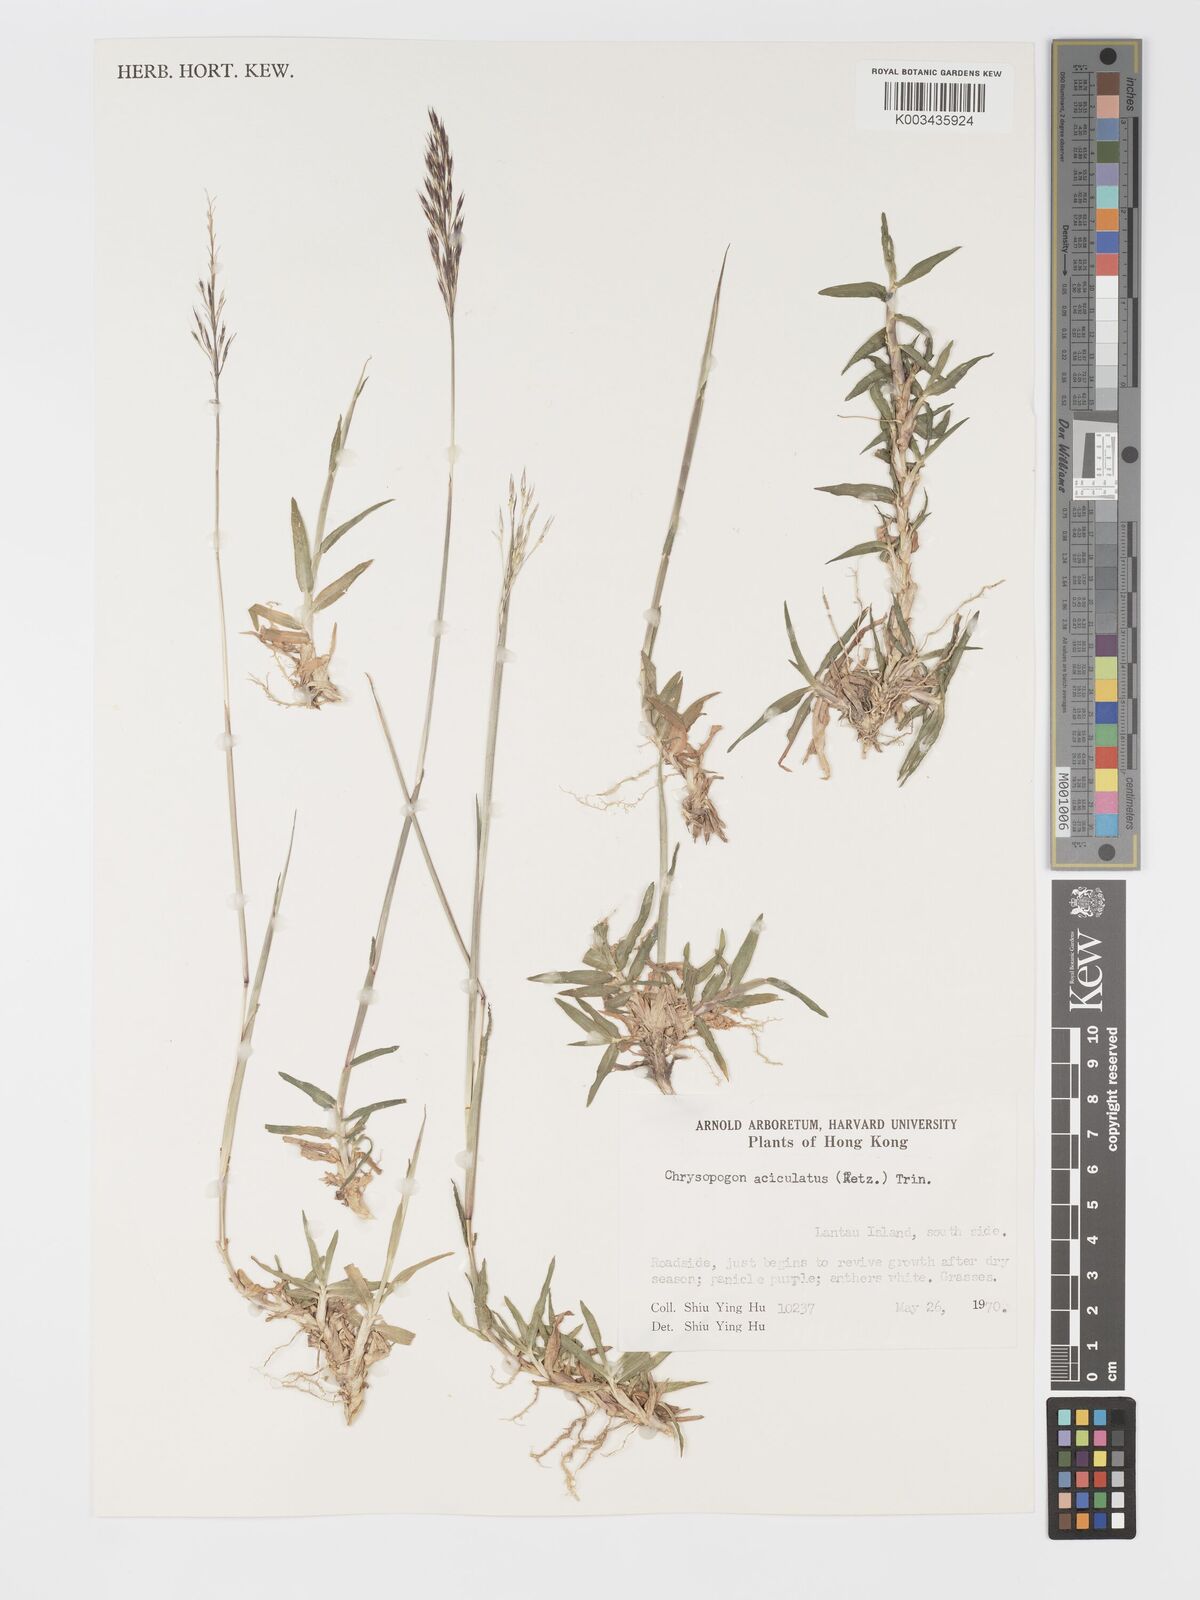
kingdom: Plantae
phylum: Tracheophyta
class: Liliopsida
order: Poales
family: Poaceae
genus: Chrysopogon
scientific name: Chrysopogon aciculatus
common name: Pilipiliula
